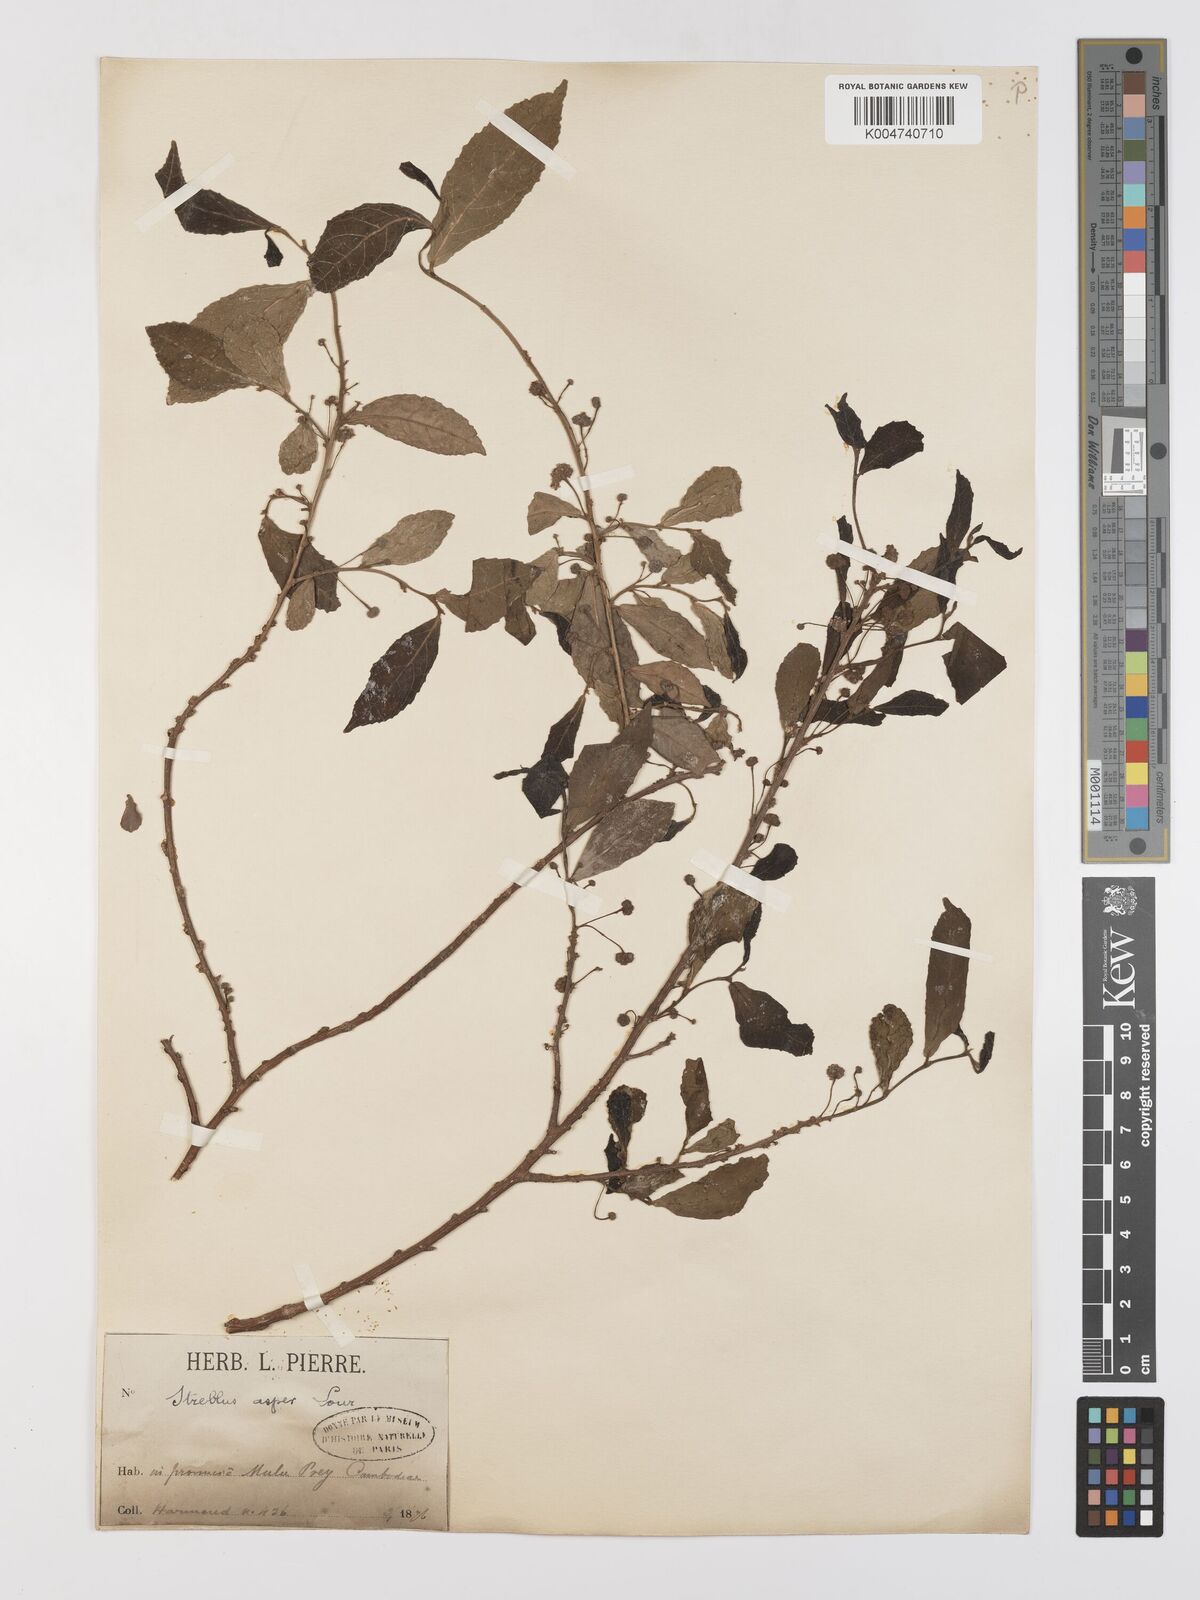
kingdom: Plantae
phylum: Tracheophyta
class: Magnoliopsida
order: Rosales
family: Moraceae
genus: Streblus
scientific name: Streblus asper
